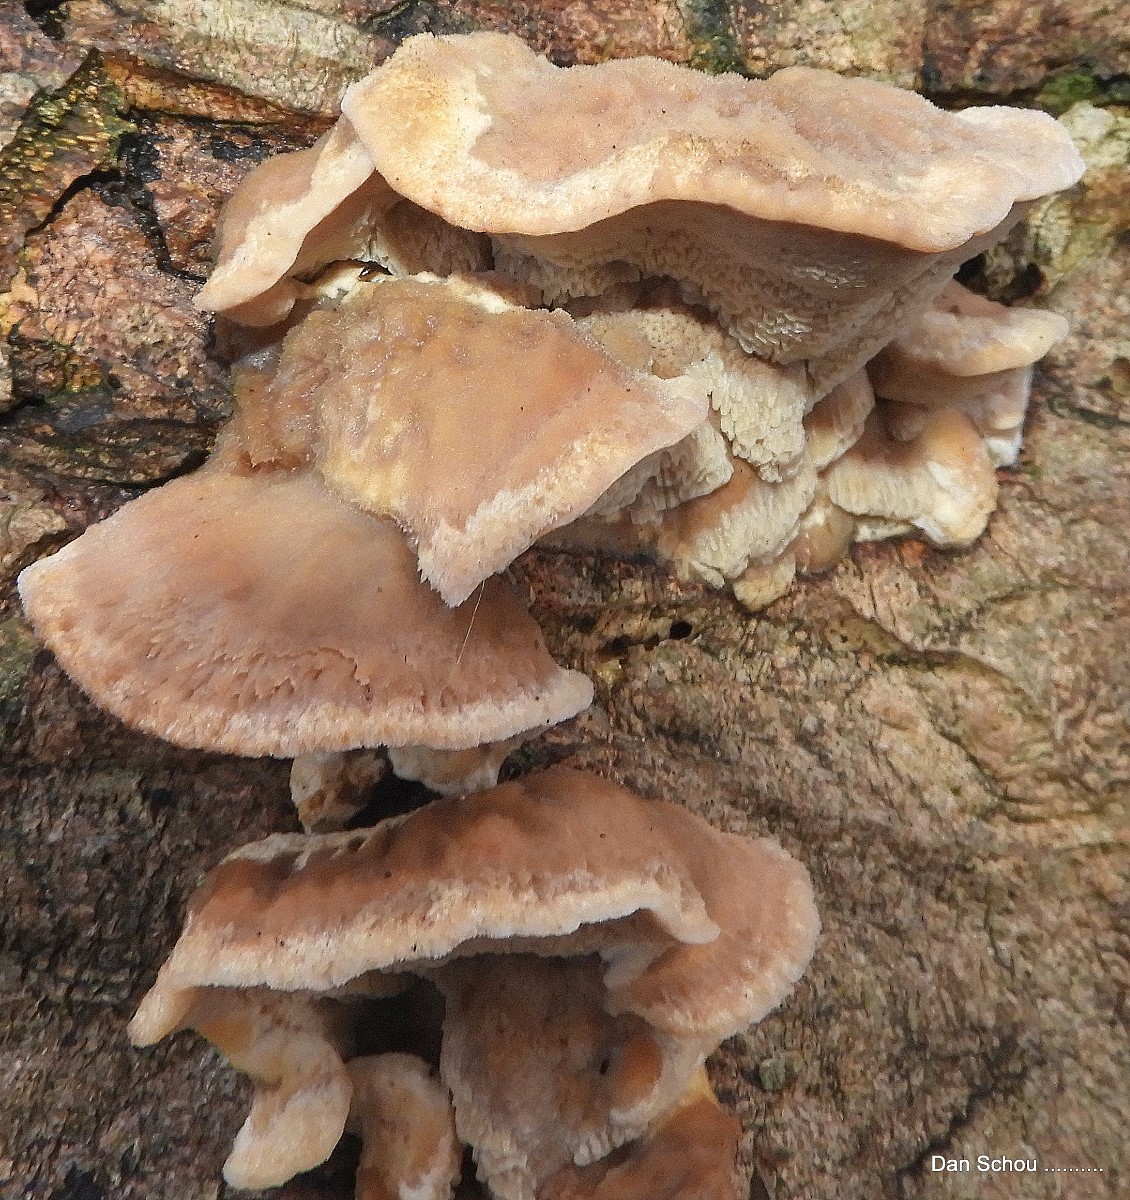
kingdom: Fungi
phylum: Basidiomycota
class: Agaricomycetes
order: Polyporales
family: Phanerochaetaceae
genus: Bjerkandera
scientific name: Bjerkandera fumosa
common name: grågul sodporesvamp
